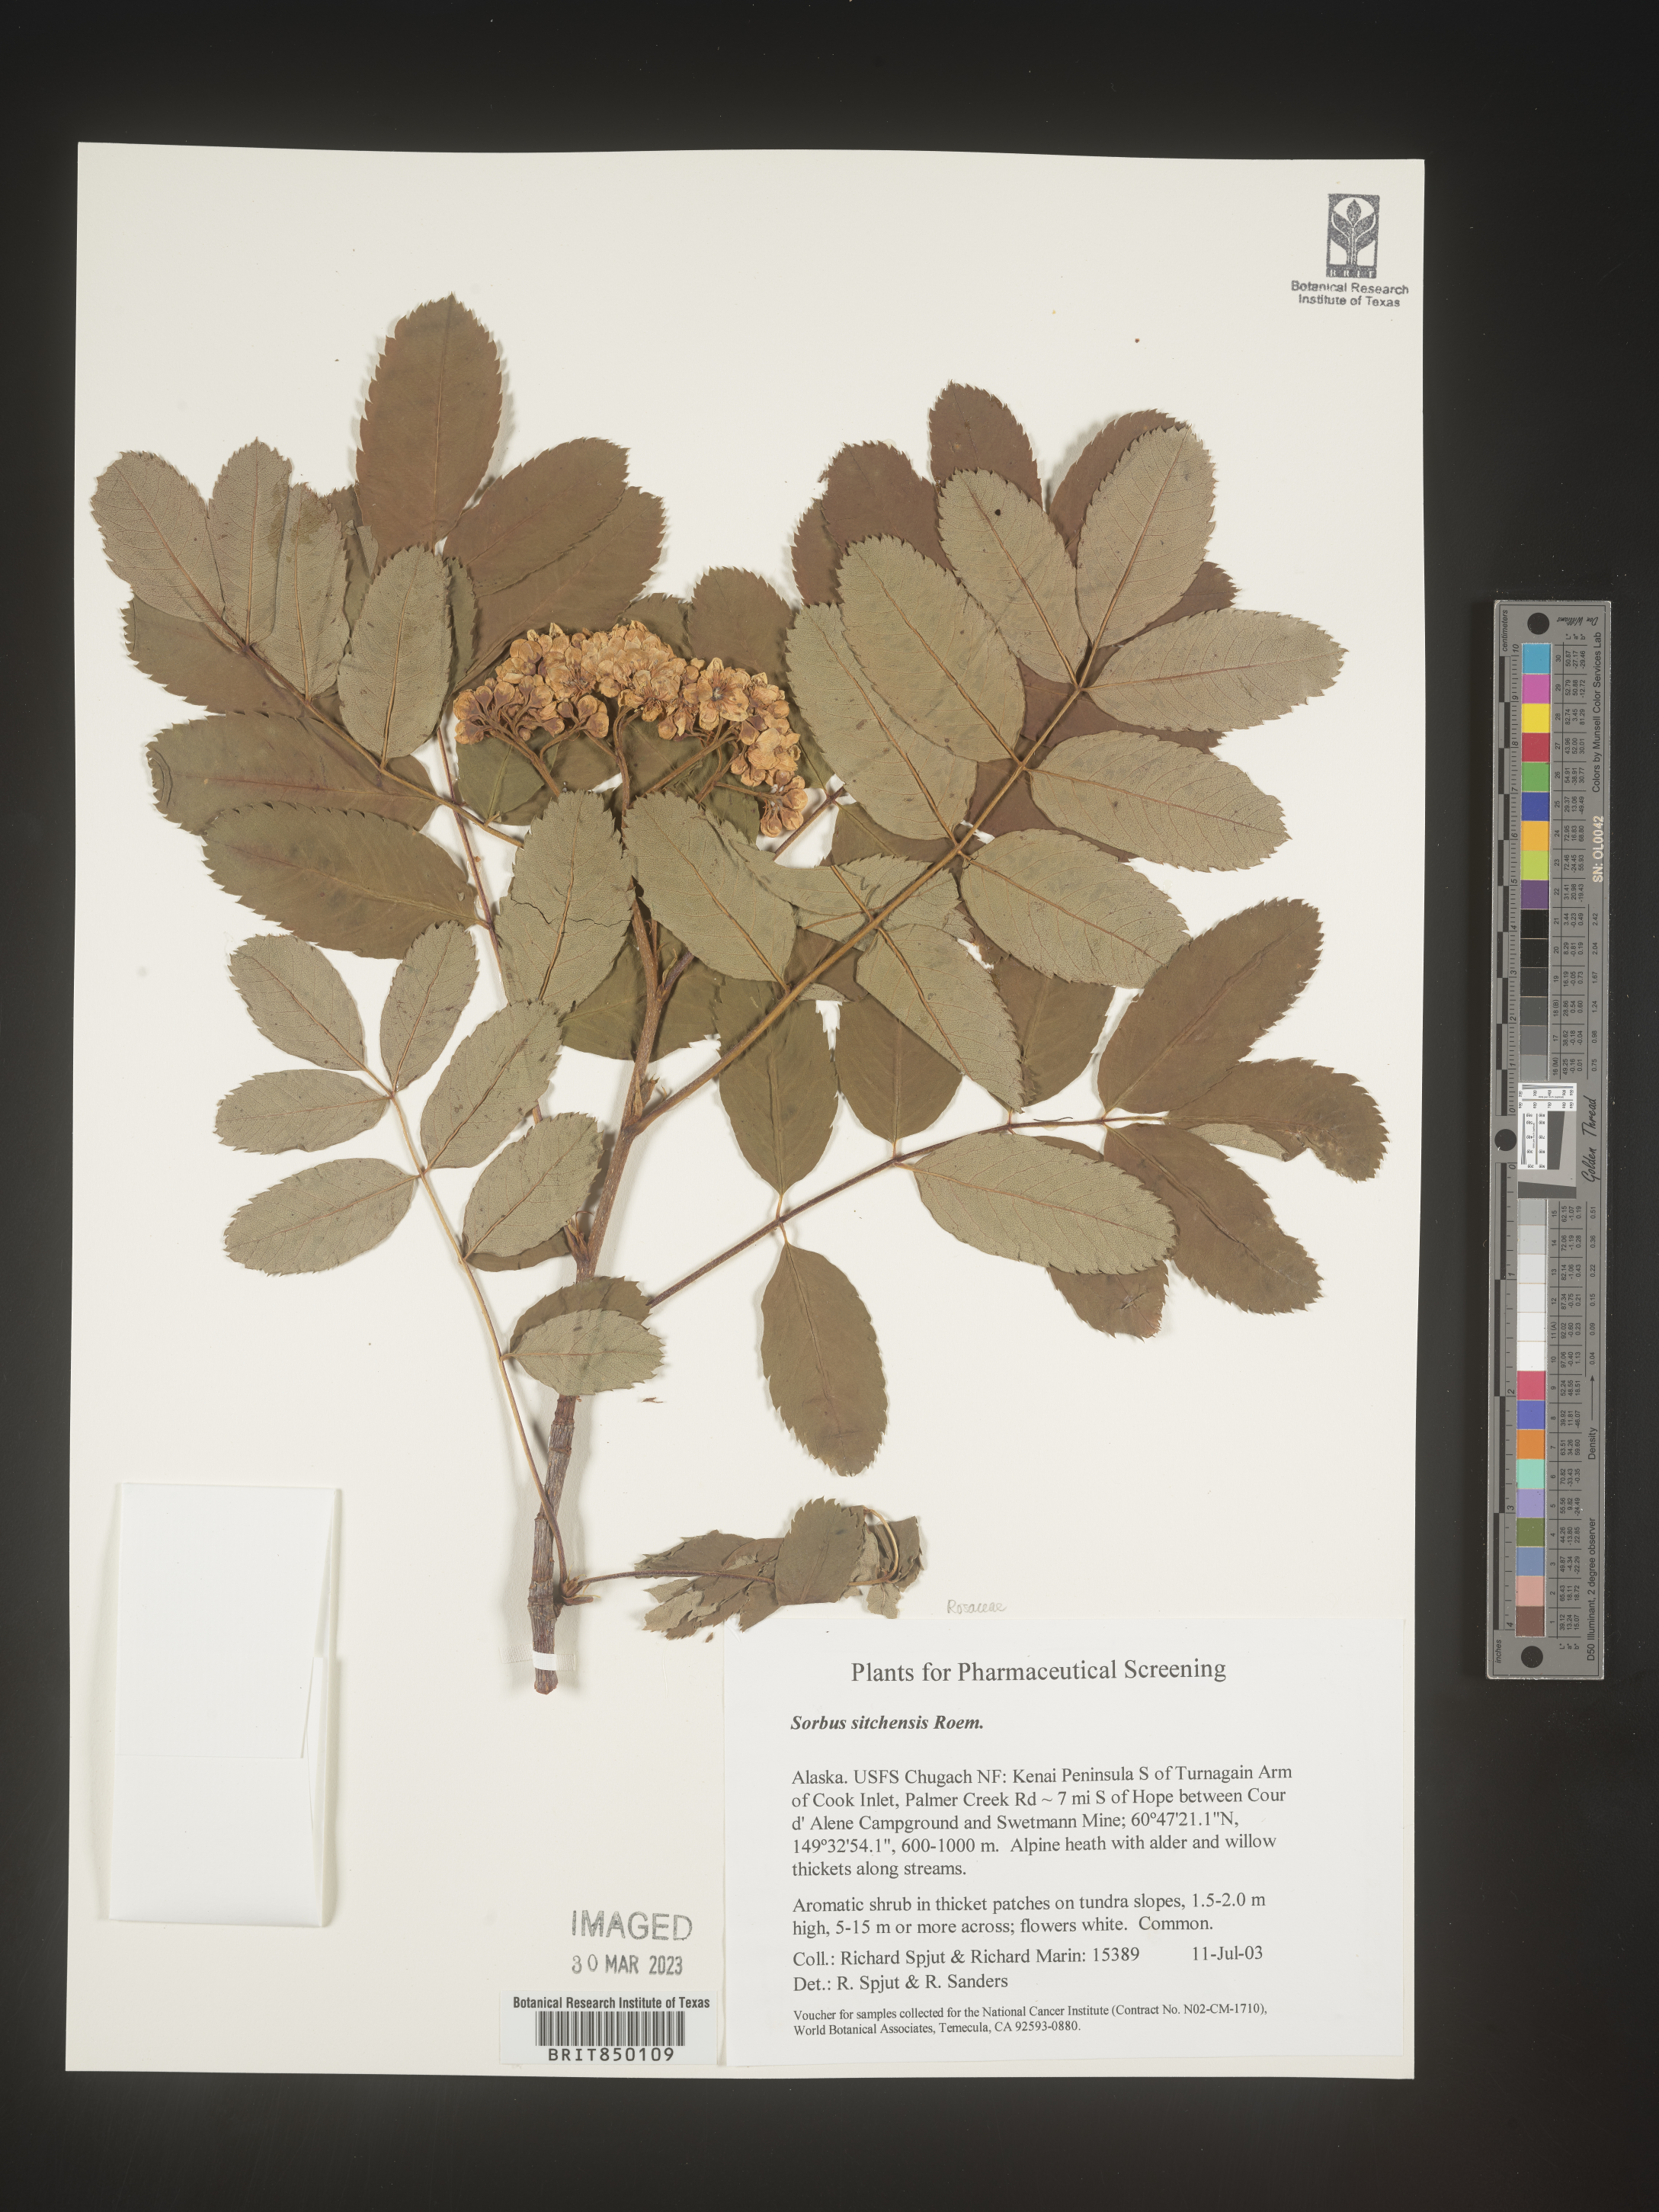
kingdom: Plantae
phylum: Tracheophyta
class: Magnoliopsida
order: Rosales
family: Rosaceae
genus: Sorbus
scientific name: Sorbus
